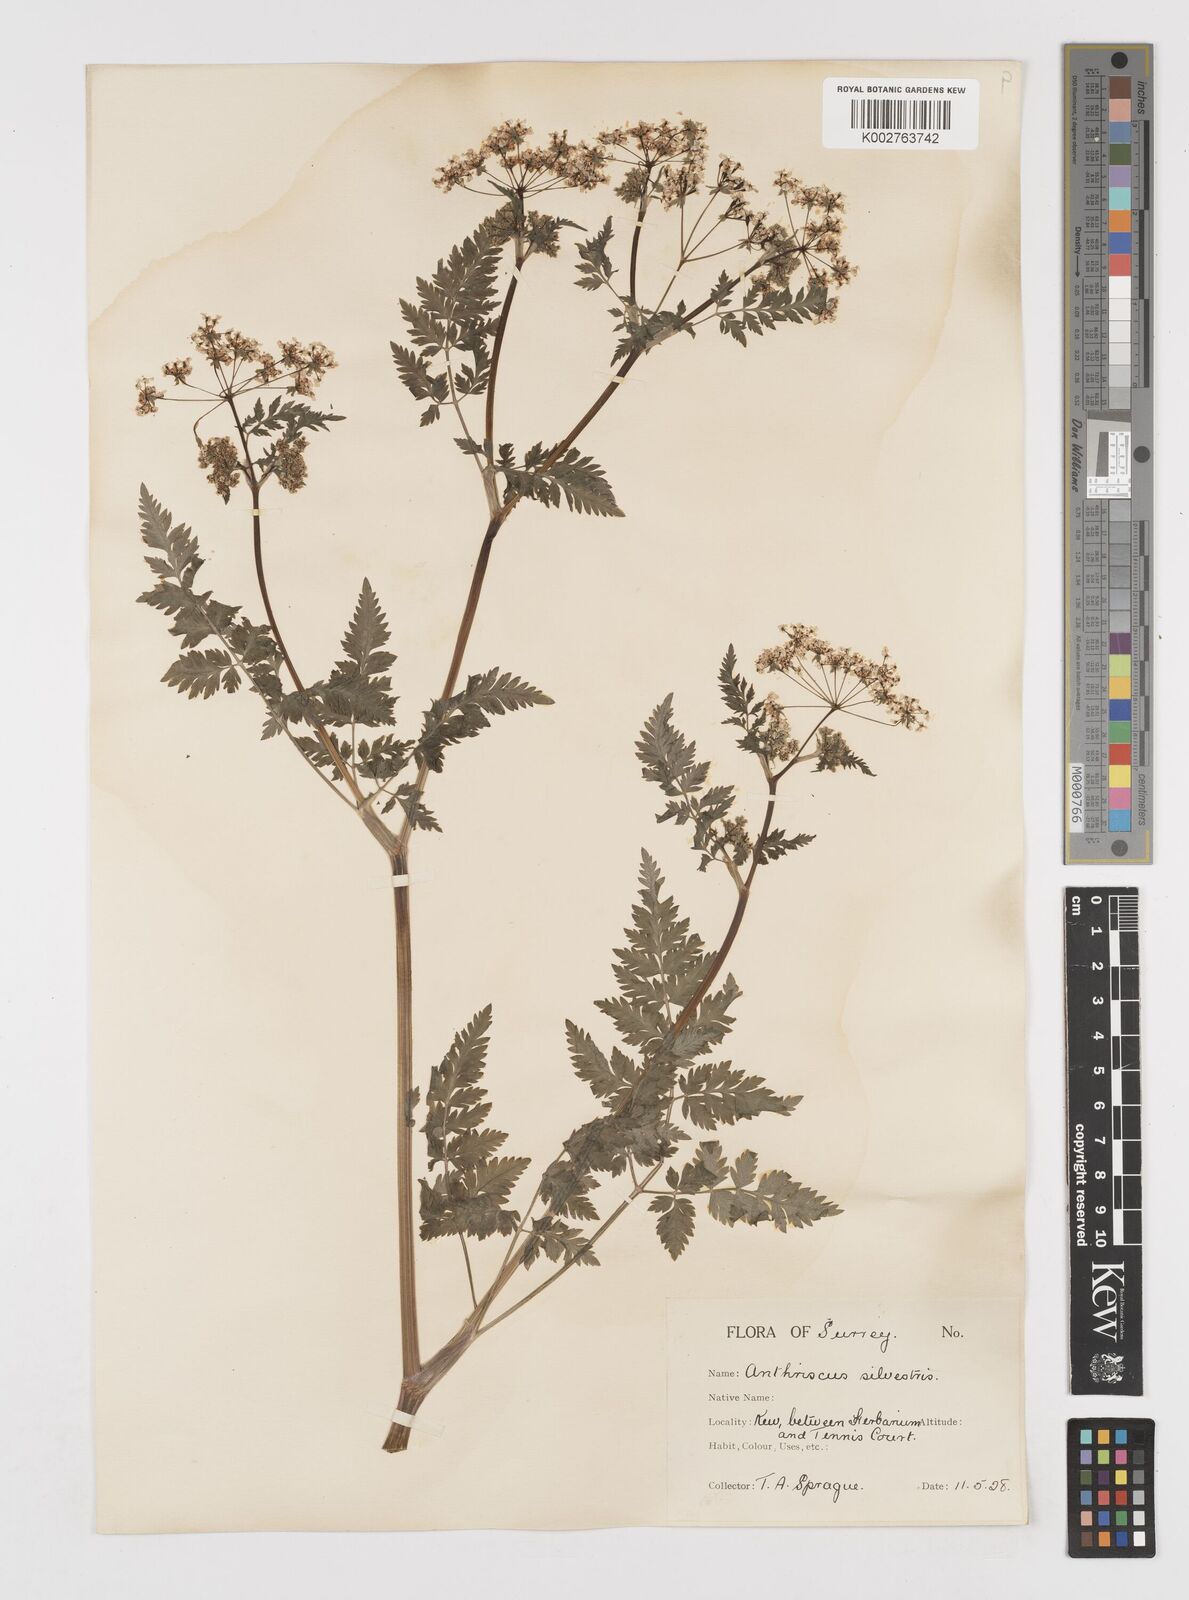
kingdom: Plantae
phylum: Tracheophyta
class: Magnoliopsida
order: Apiales
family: Apiaceae
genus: Anthriscus
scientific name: Anthriscus sylvestris
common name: Cow parsley
